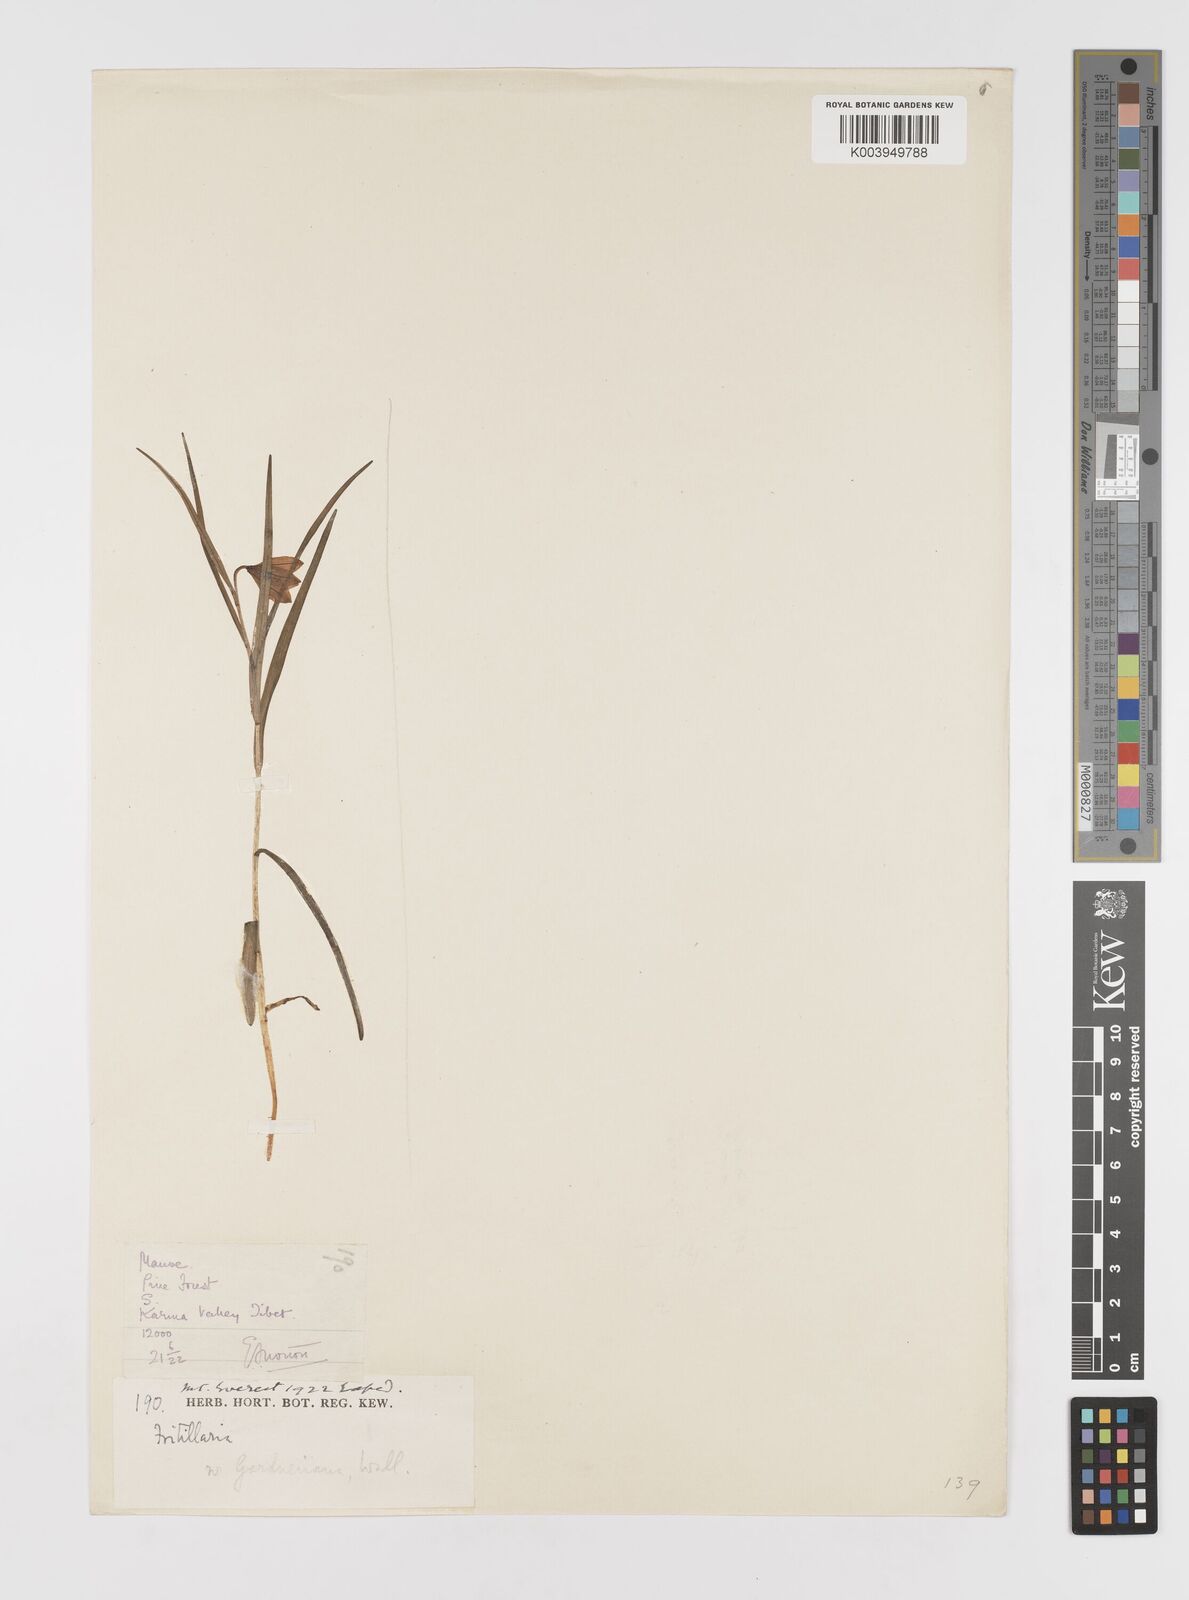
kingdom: Plantae
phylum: Tracheophyta
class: Liliopsida
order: Liliales
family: Liliaceae
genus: Lilium
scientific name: Lilium nanum
